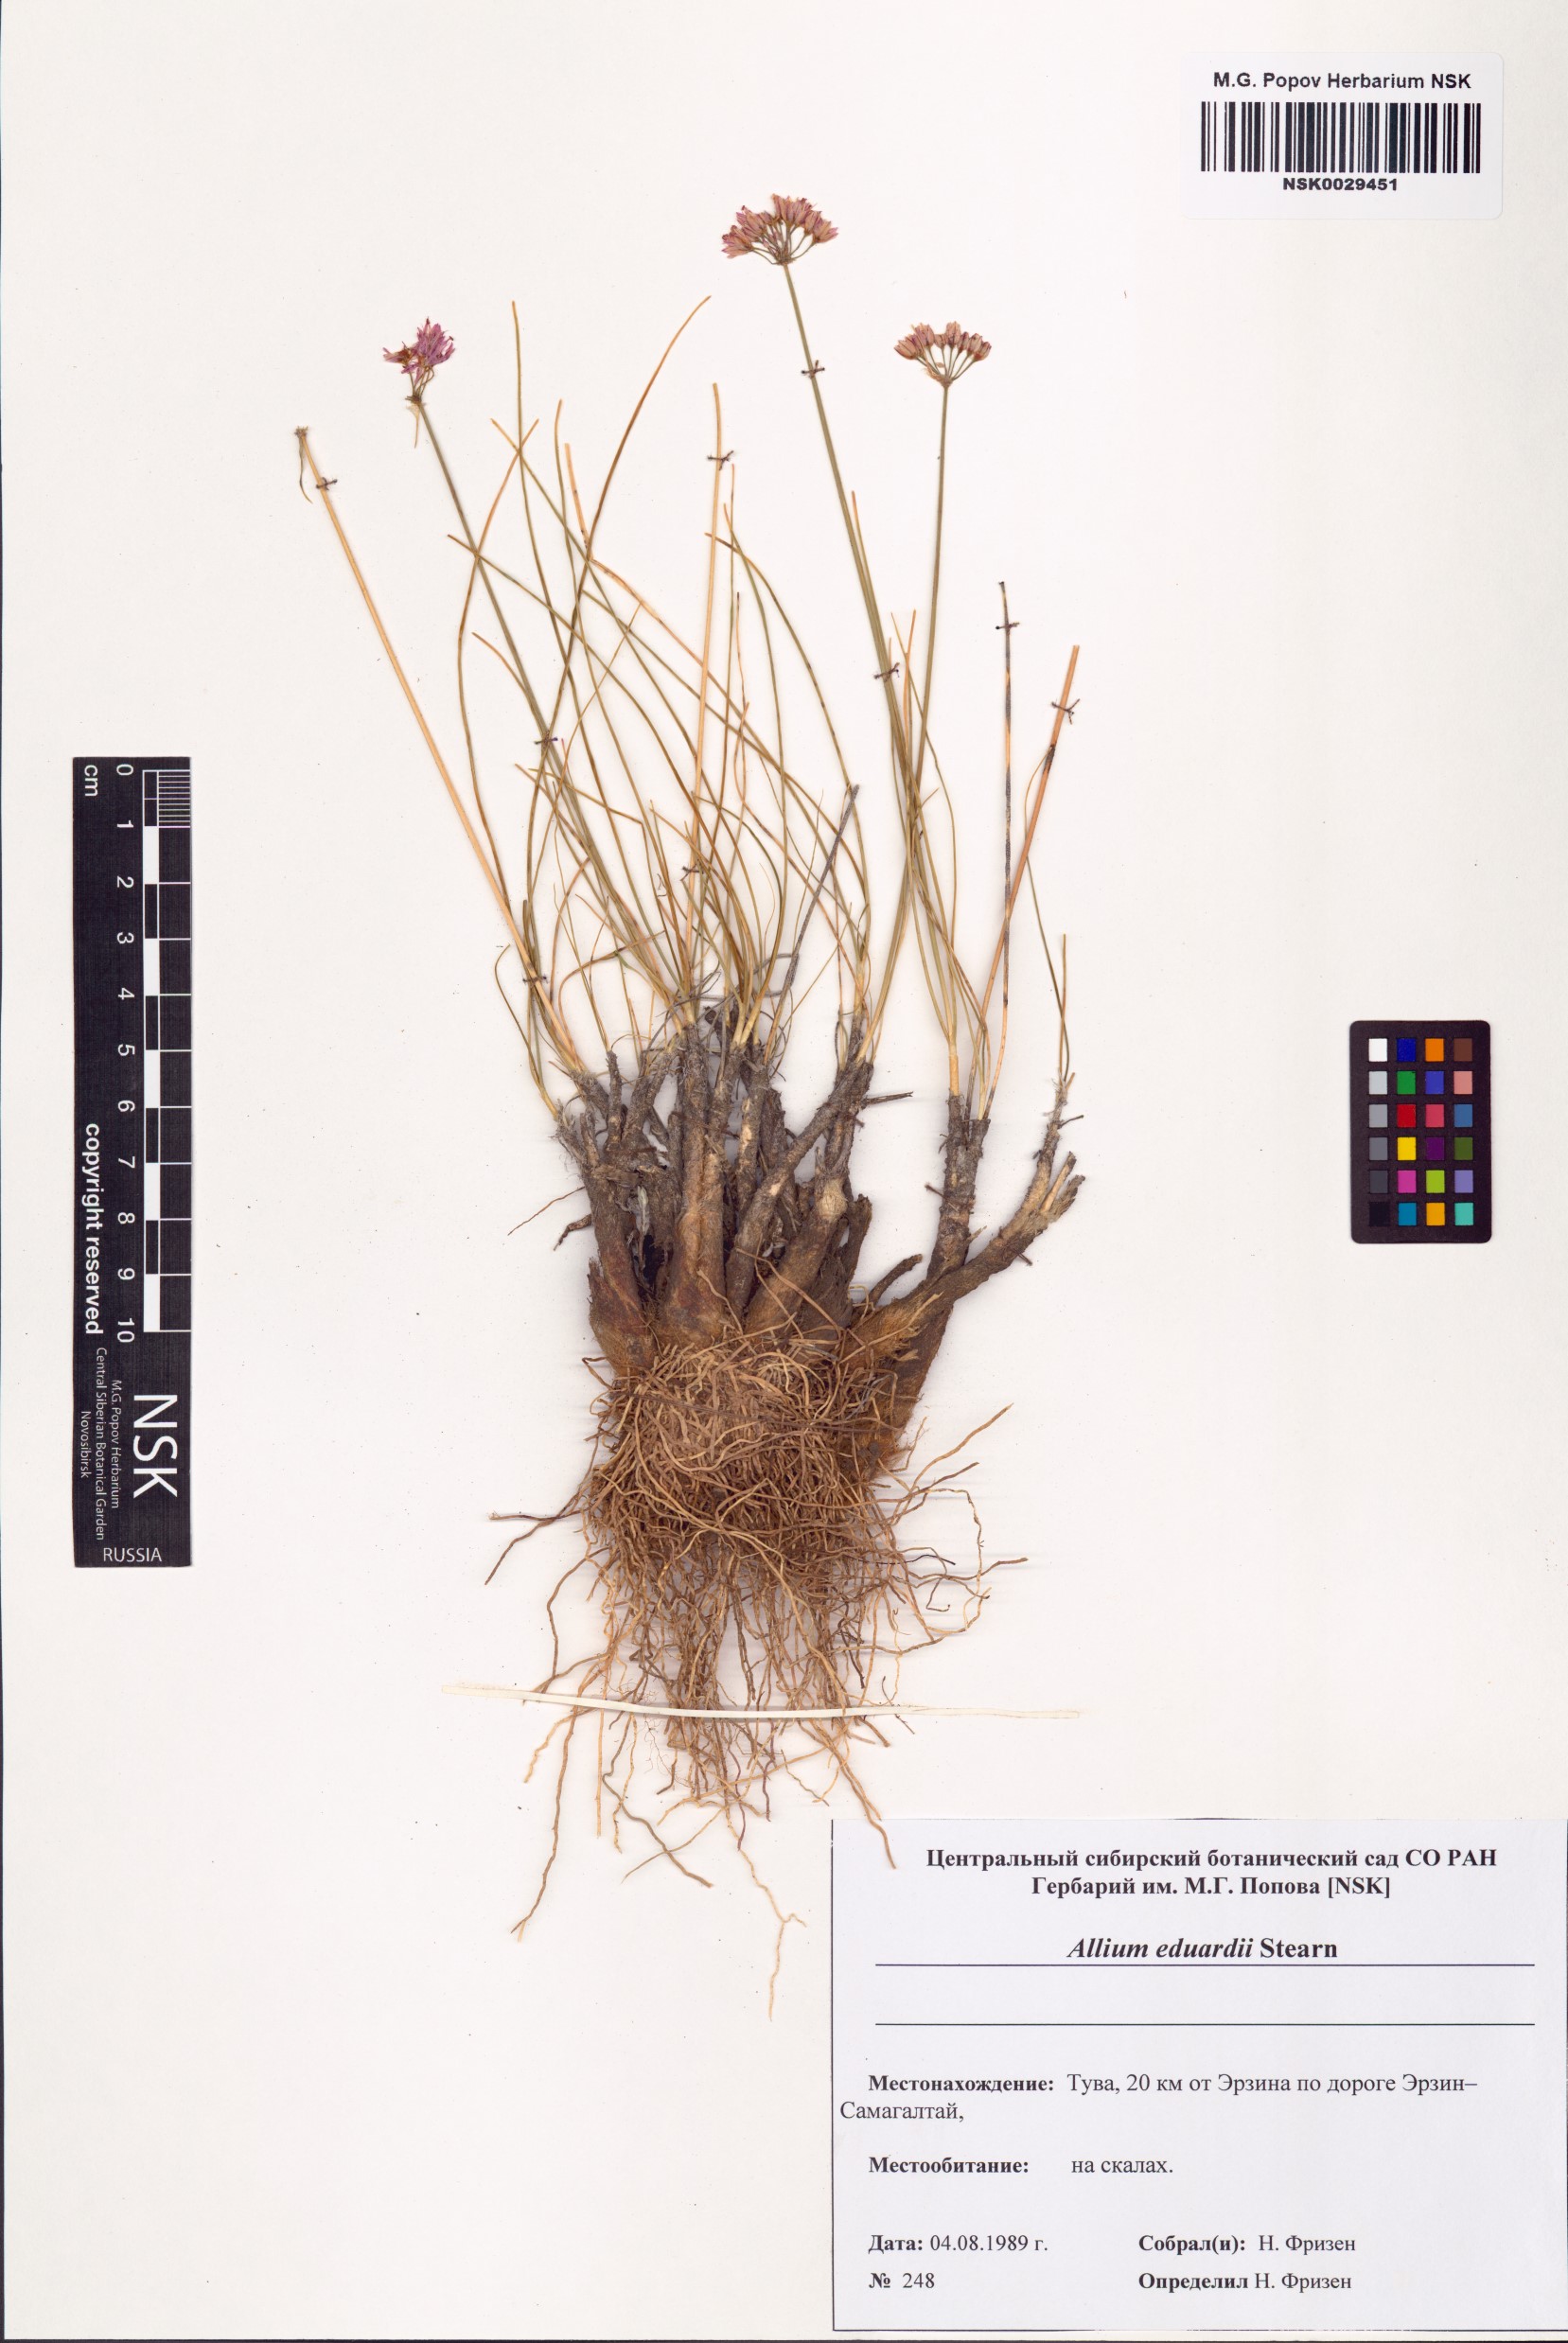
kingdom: Plantae
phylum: Tracheophyta
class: Liliopsida
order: Asparagales
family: Amaryllidaceae
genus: Allium
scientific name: Allium eduardi
